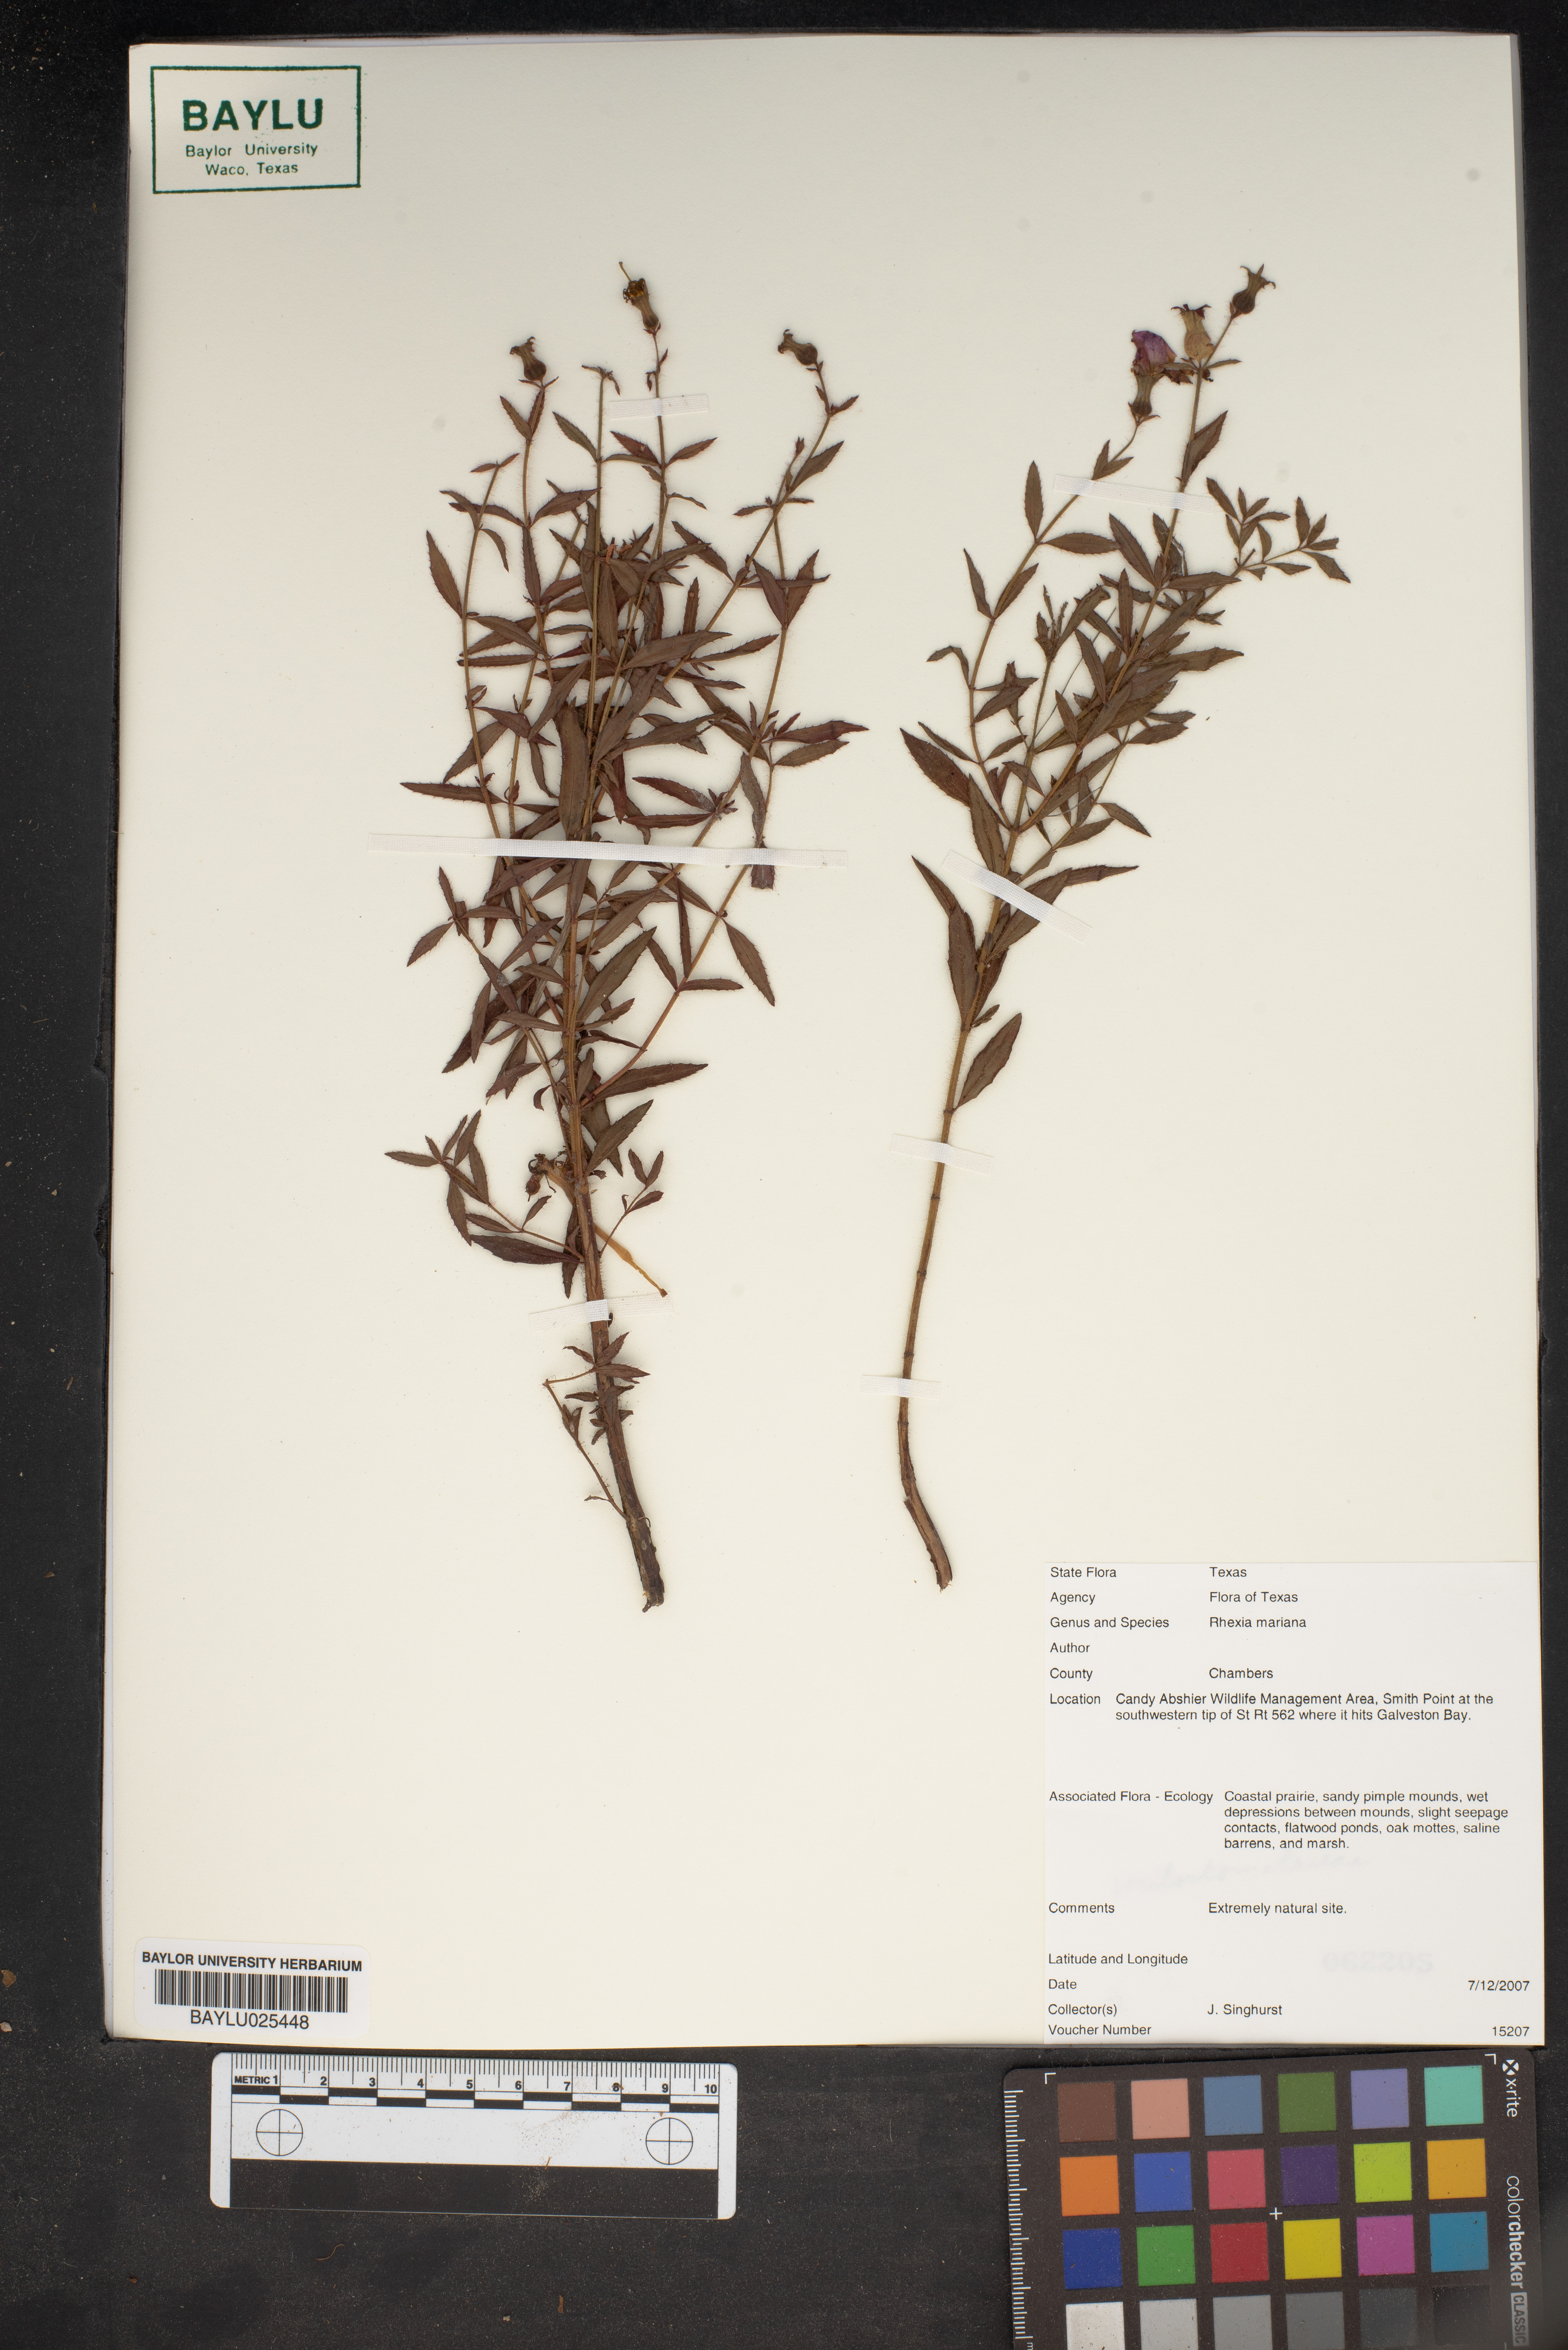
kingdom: Plantae
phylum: Tracheophyta
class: Magnoliopsida
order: Myrtales
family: Melastomataceae
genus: Rhexia
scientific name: Rhexia mariana
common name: Dull meadow-pitcher
